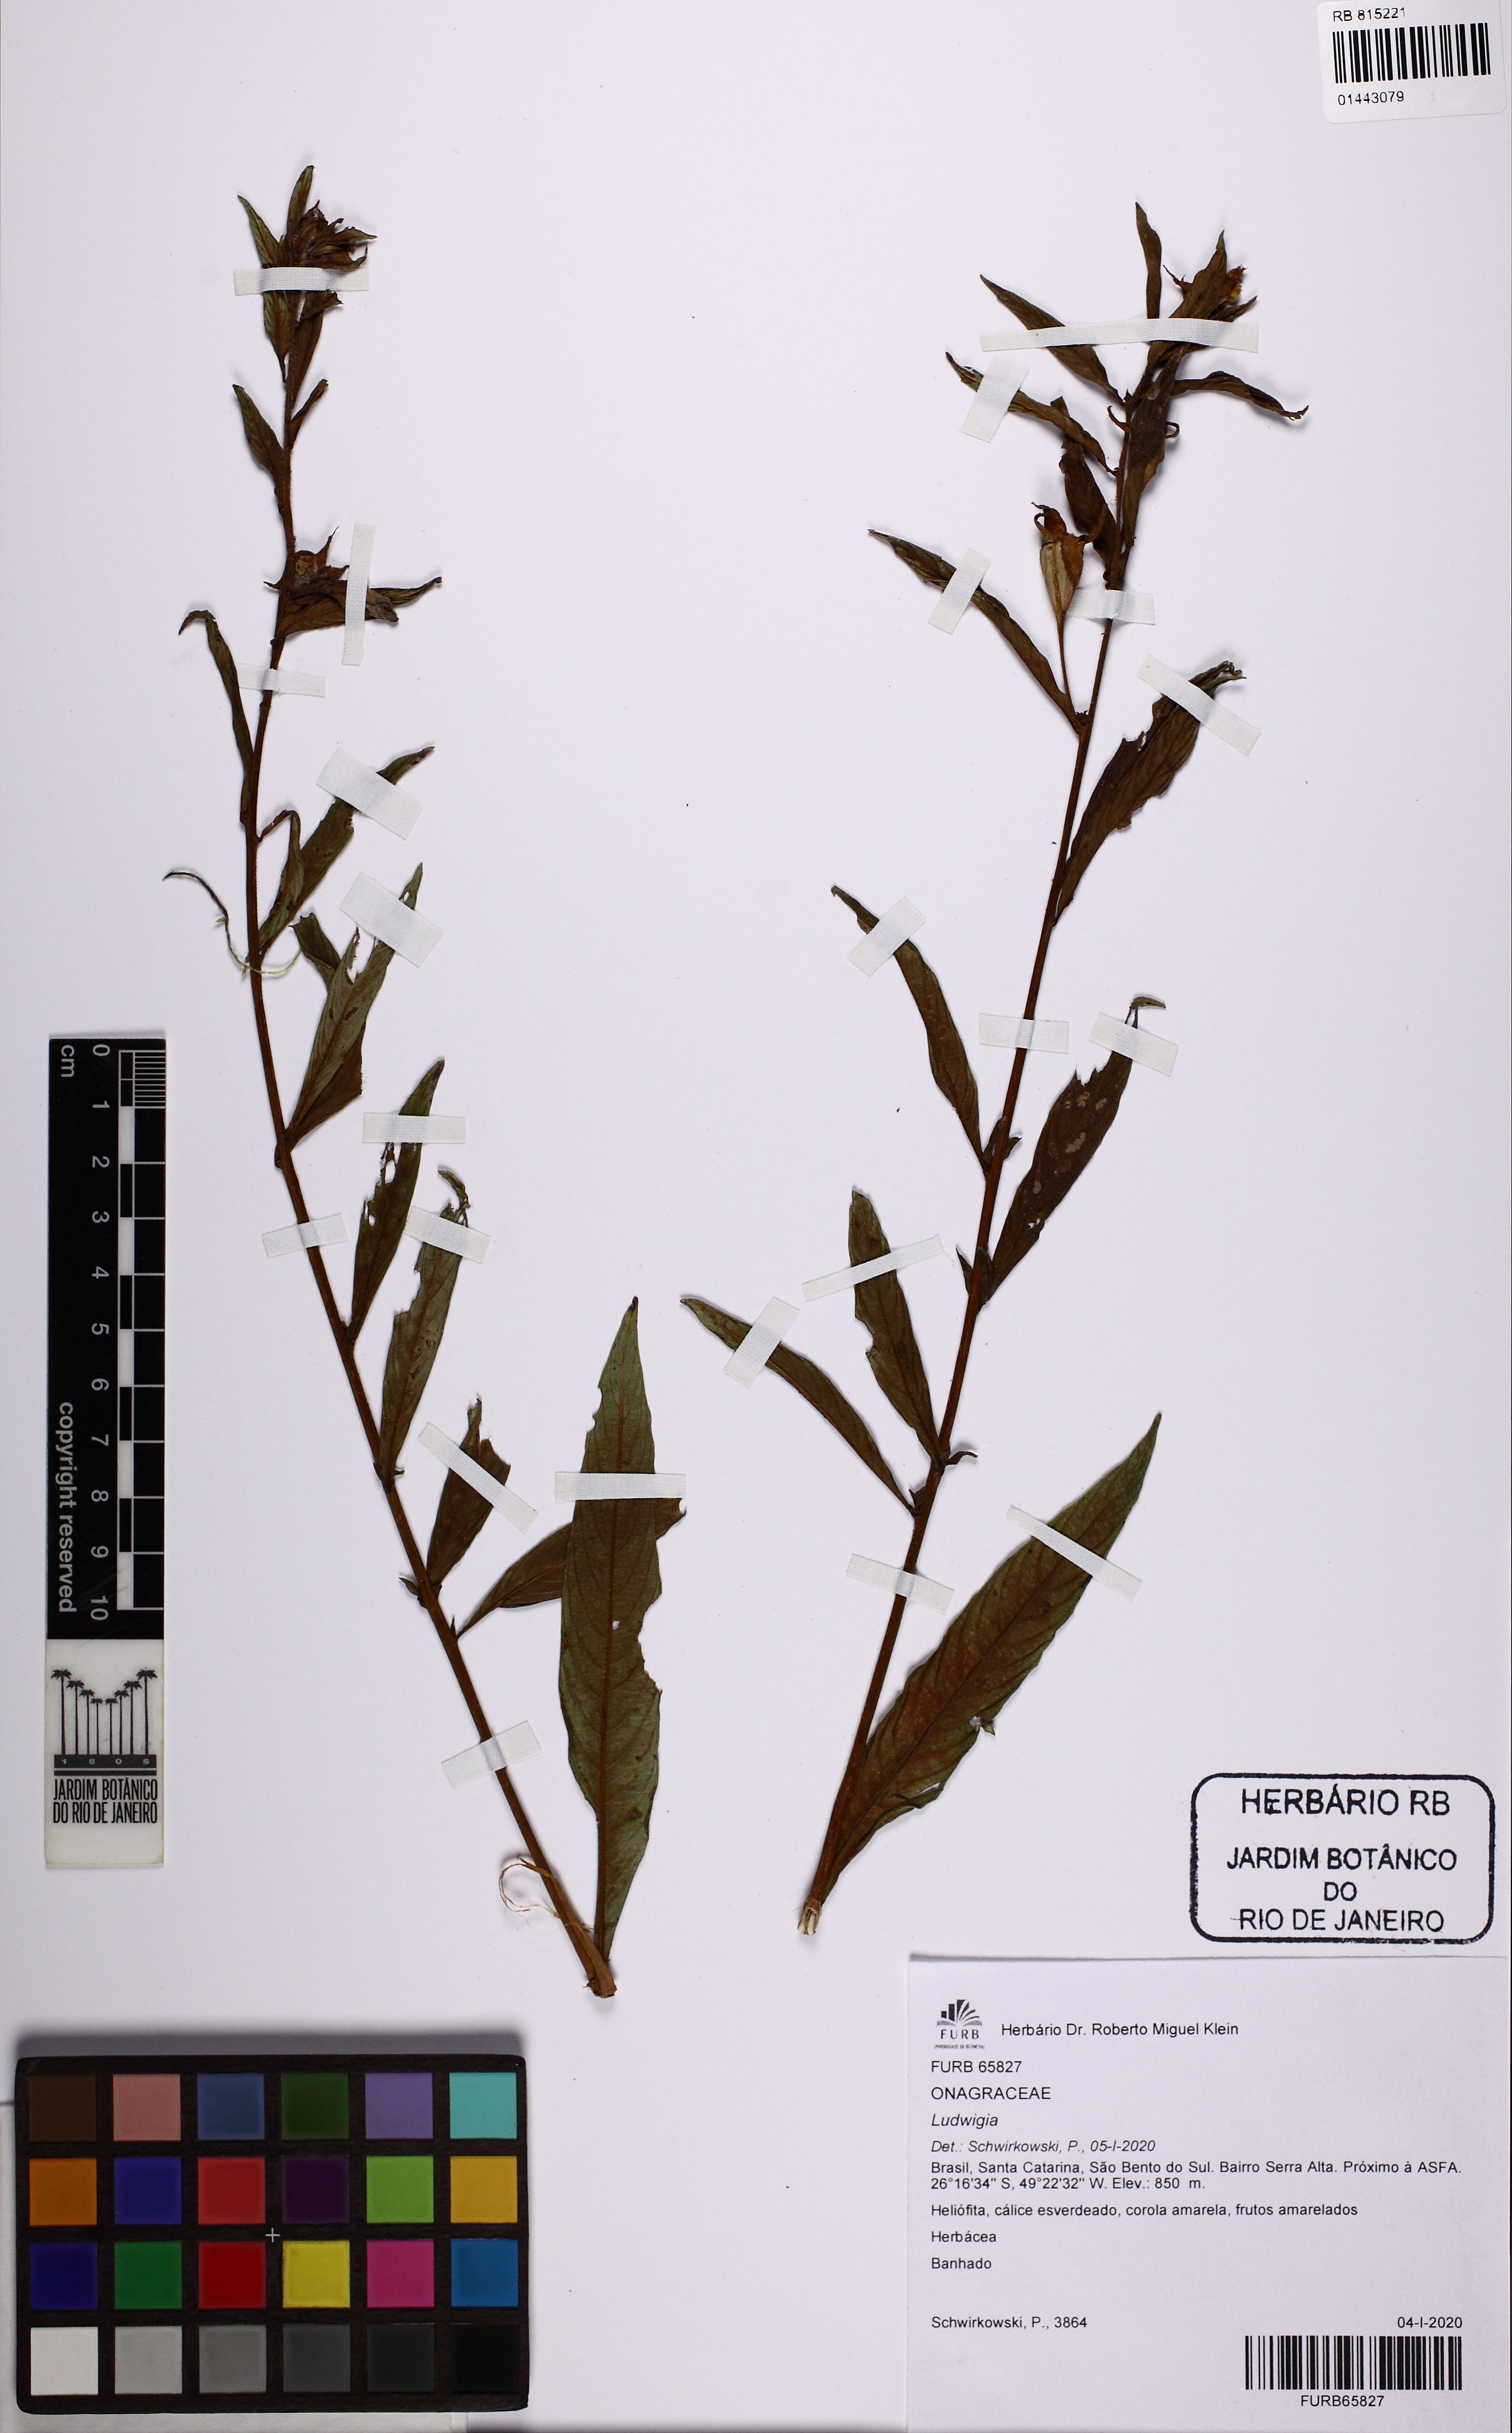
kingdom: Plantae
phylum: Tracheophyta
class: Magnoliopsida
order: Myrtales
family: Onagraceae
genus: Ludwigia
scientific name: Ludwigia
